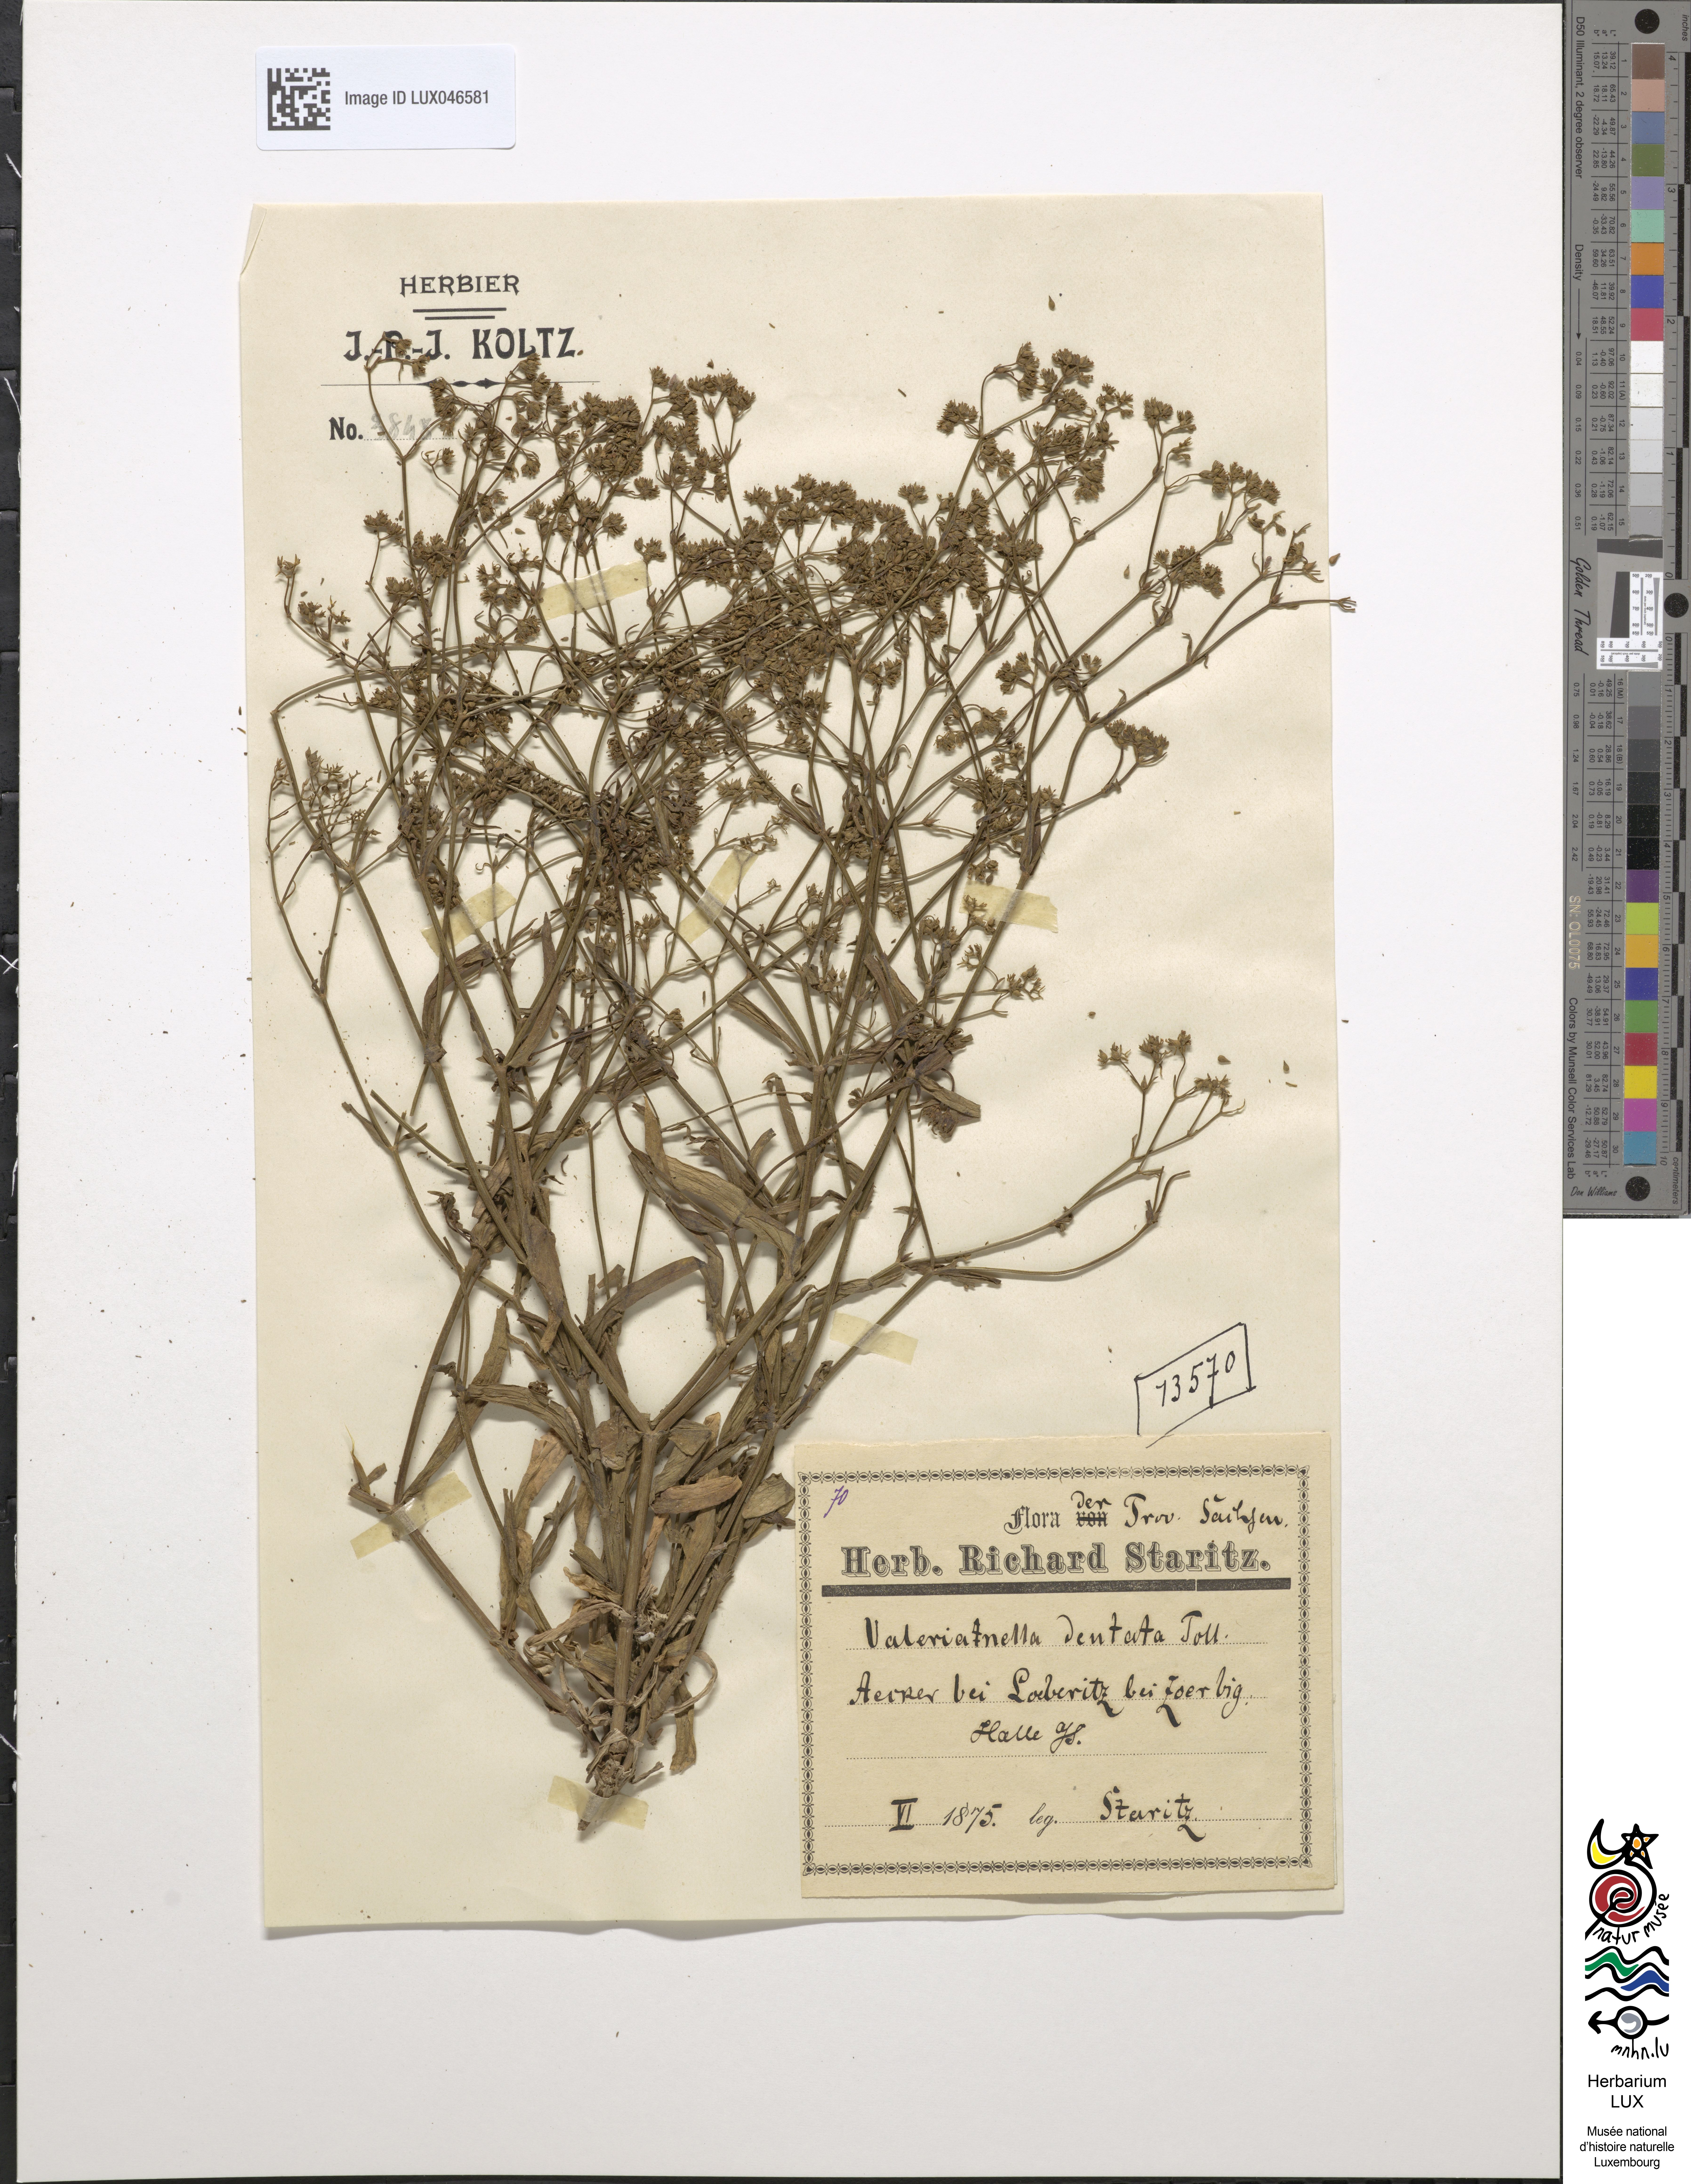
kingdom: Plantae
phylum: Tracheophyta
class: Magnoliopsida
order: Dipsacales
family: Caprifoliaceae
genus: Valerianella
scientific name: Valerianella dentata
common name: Narrow-fruited cornsalad
